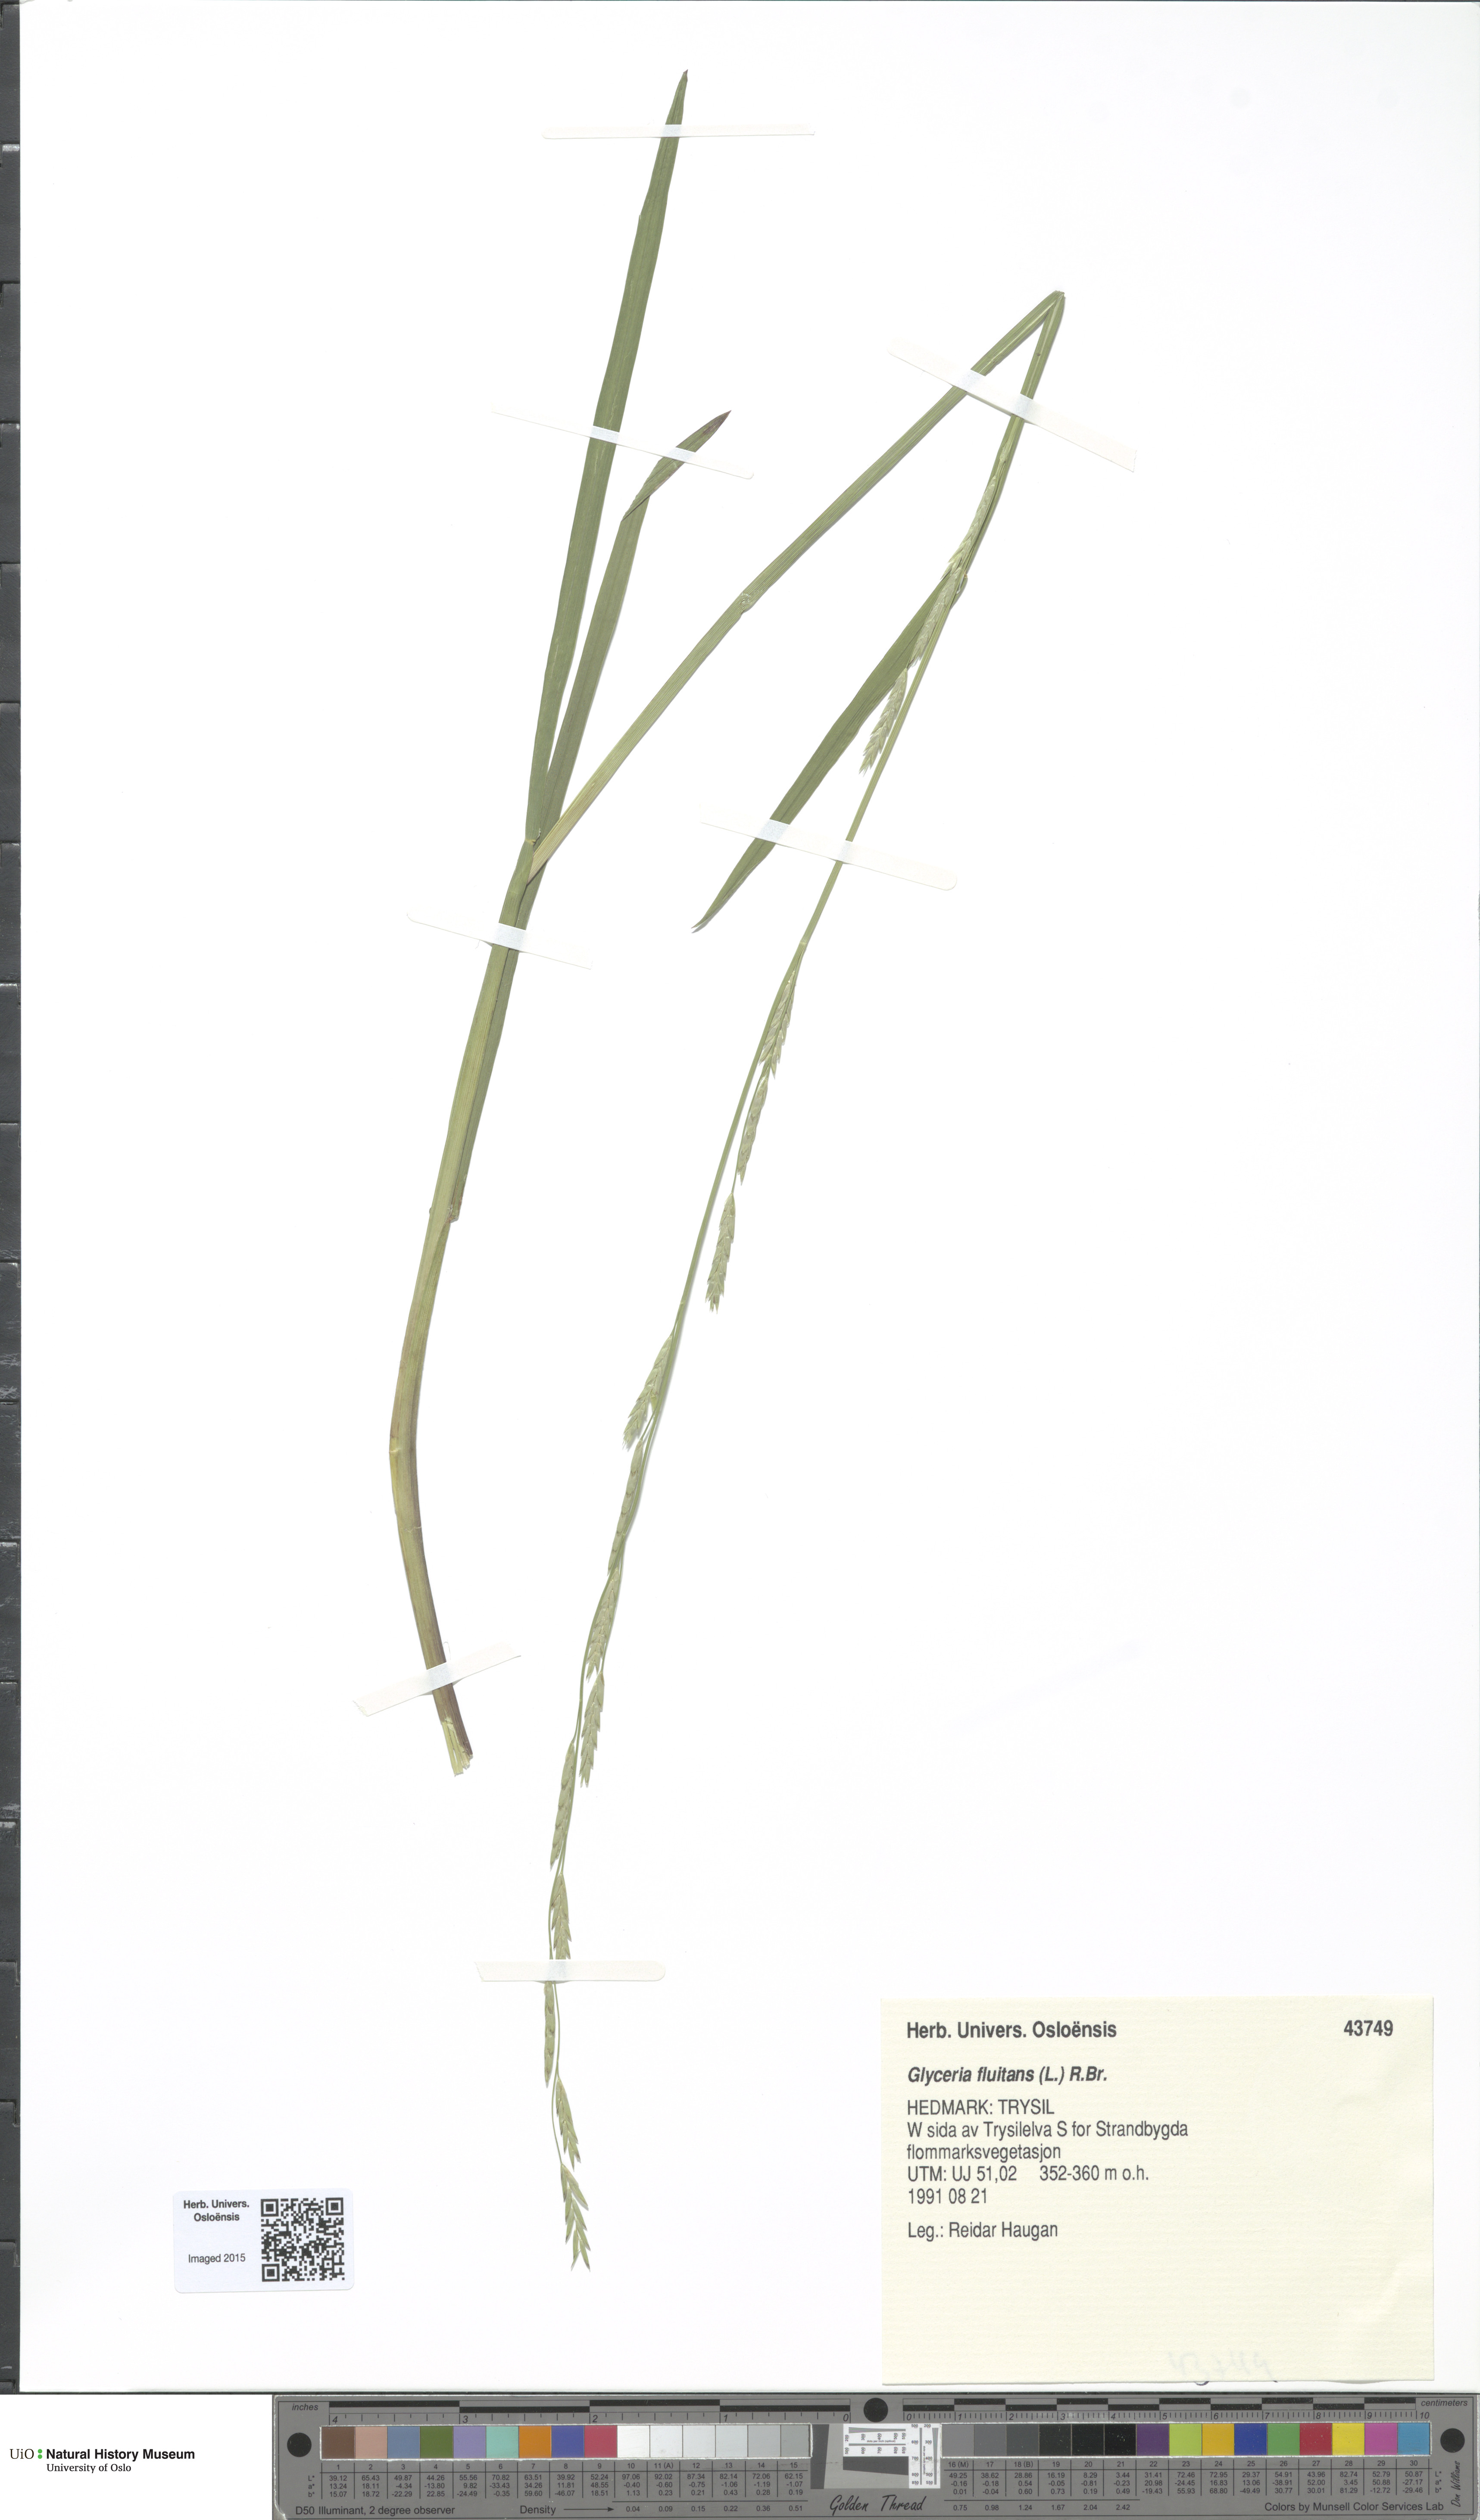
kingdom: Plantae
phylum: Tracheophyta
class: Liliopsida
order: Poales
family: Poaceae
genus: Glyceria
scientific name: Glyceria fluitans
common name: Floating sweet-grass
